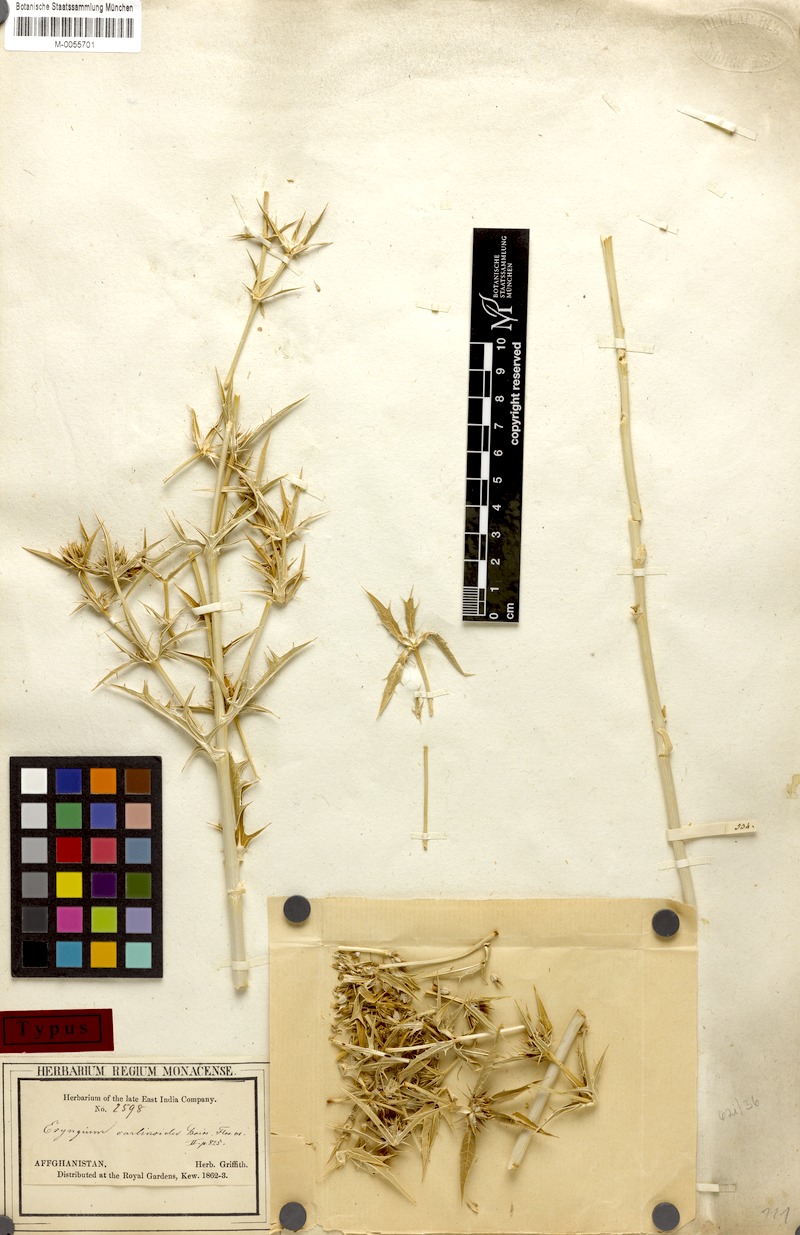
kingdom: Plantae
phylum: Tracheophyta
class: Magnoliopsida
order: Apiales
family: Apiaceae
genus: Eryngium
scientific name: Eryngium carlinoides
